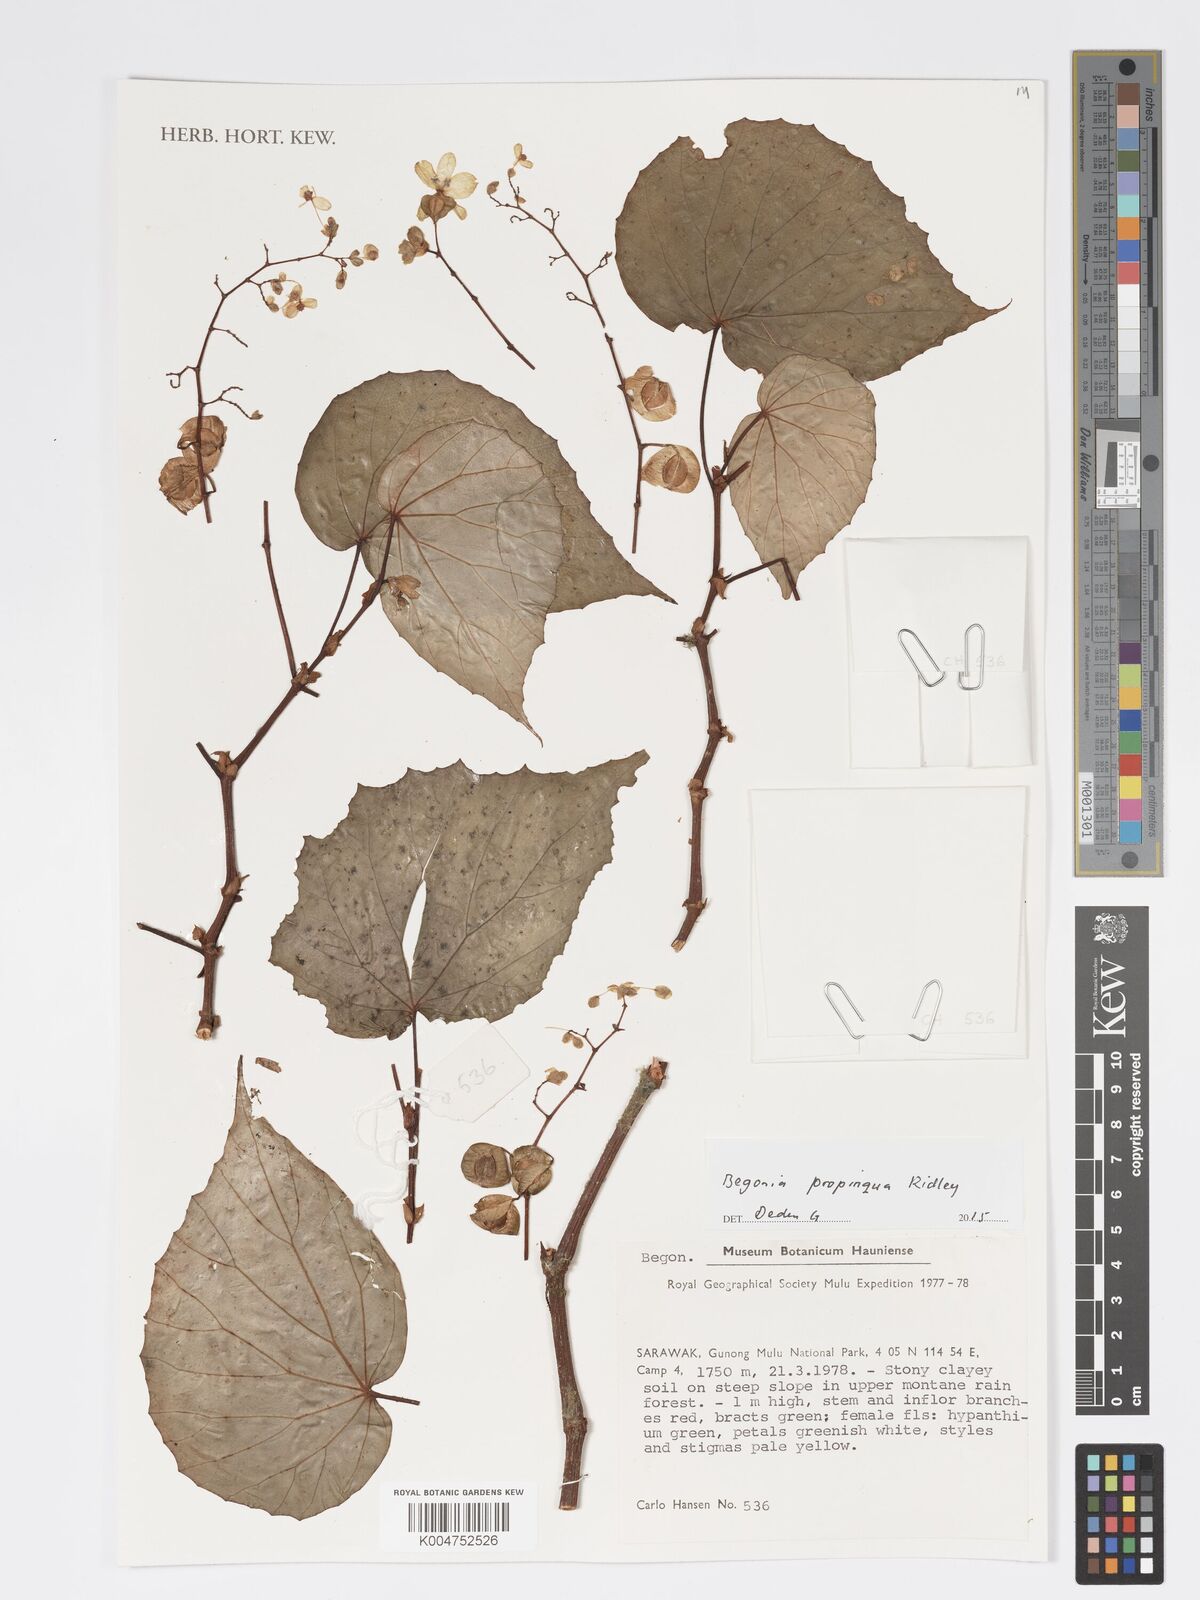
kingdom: Plantae
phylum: Tracheophyta
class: Magnoliopsida
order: Cucurbitales
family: Begoniaceae
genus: Begonia
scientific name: Begonia propinqua
